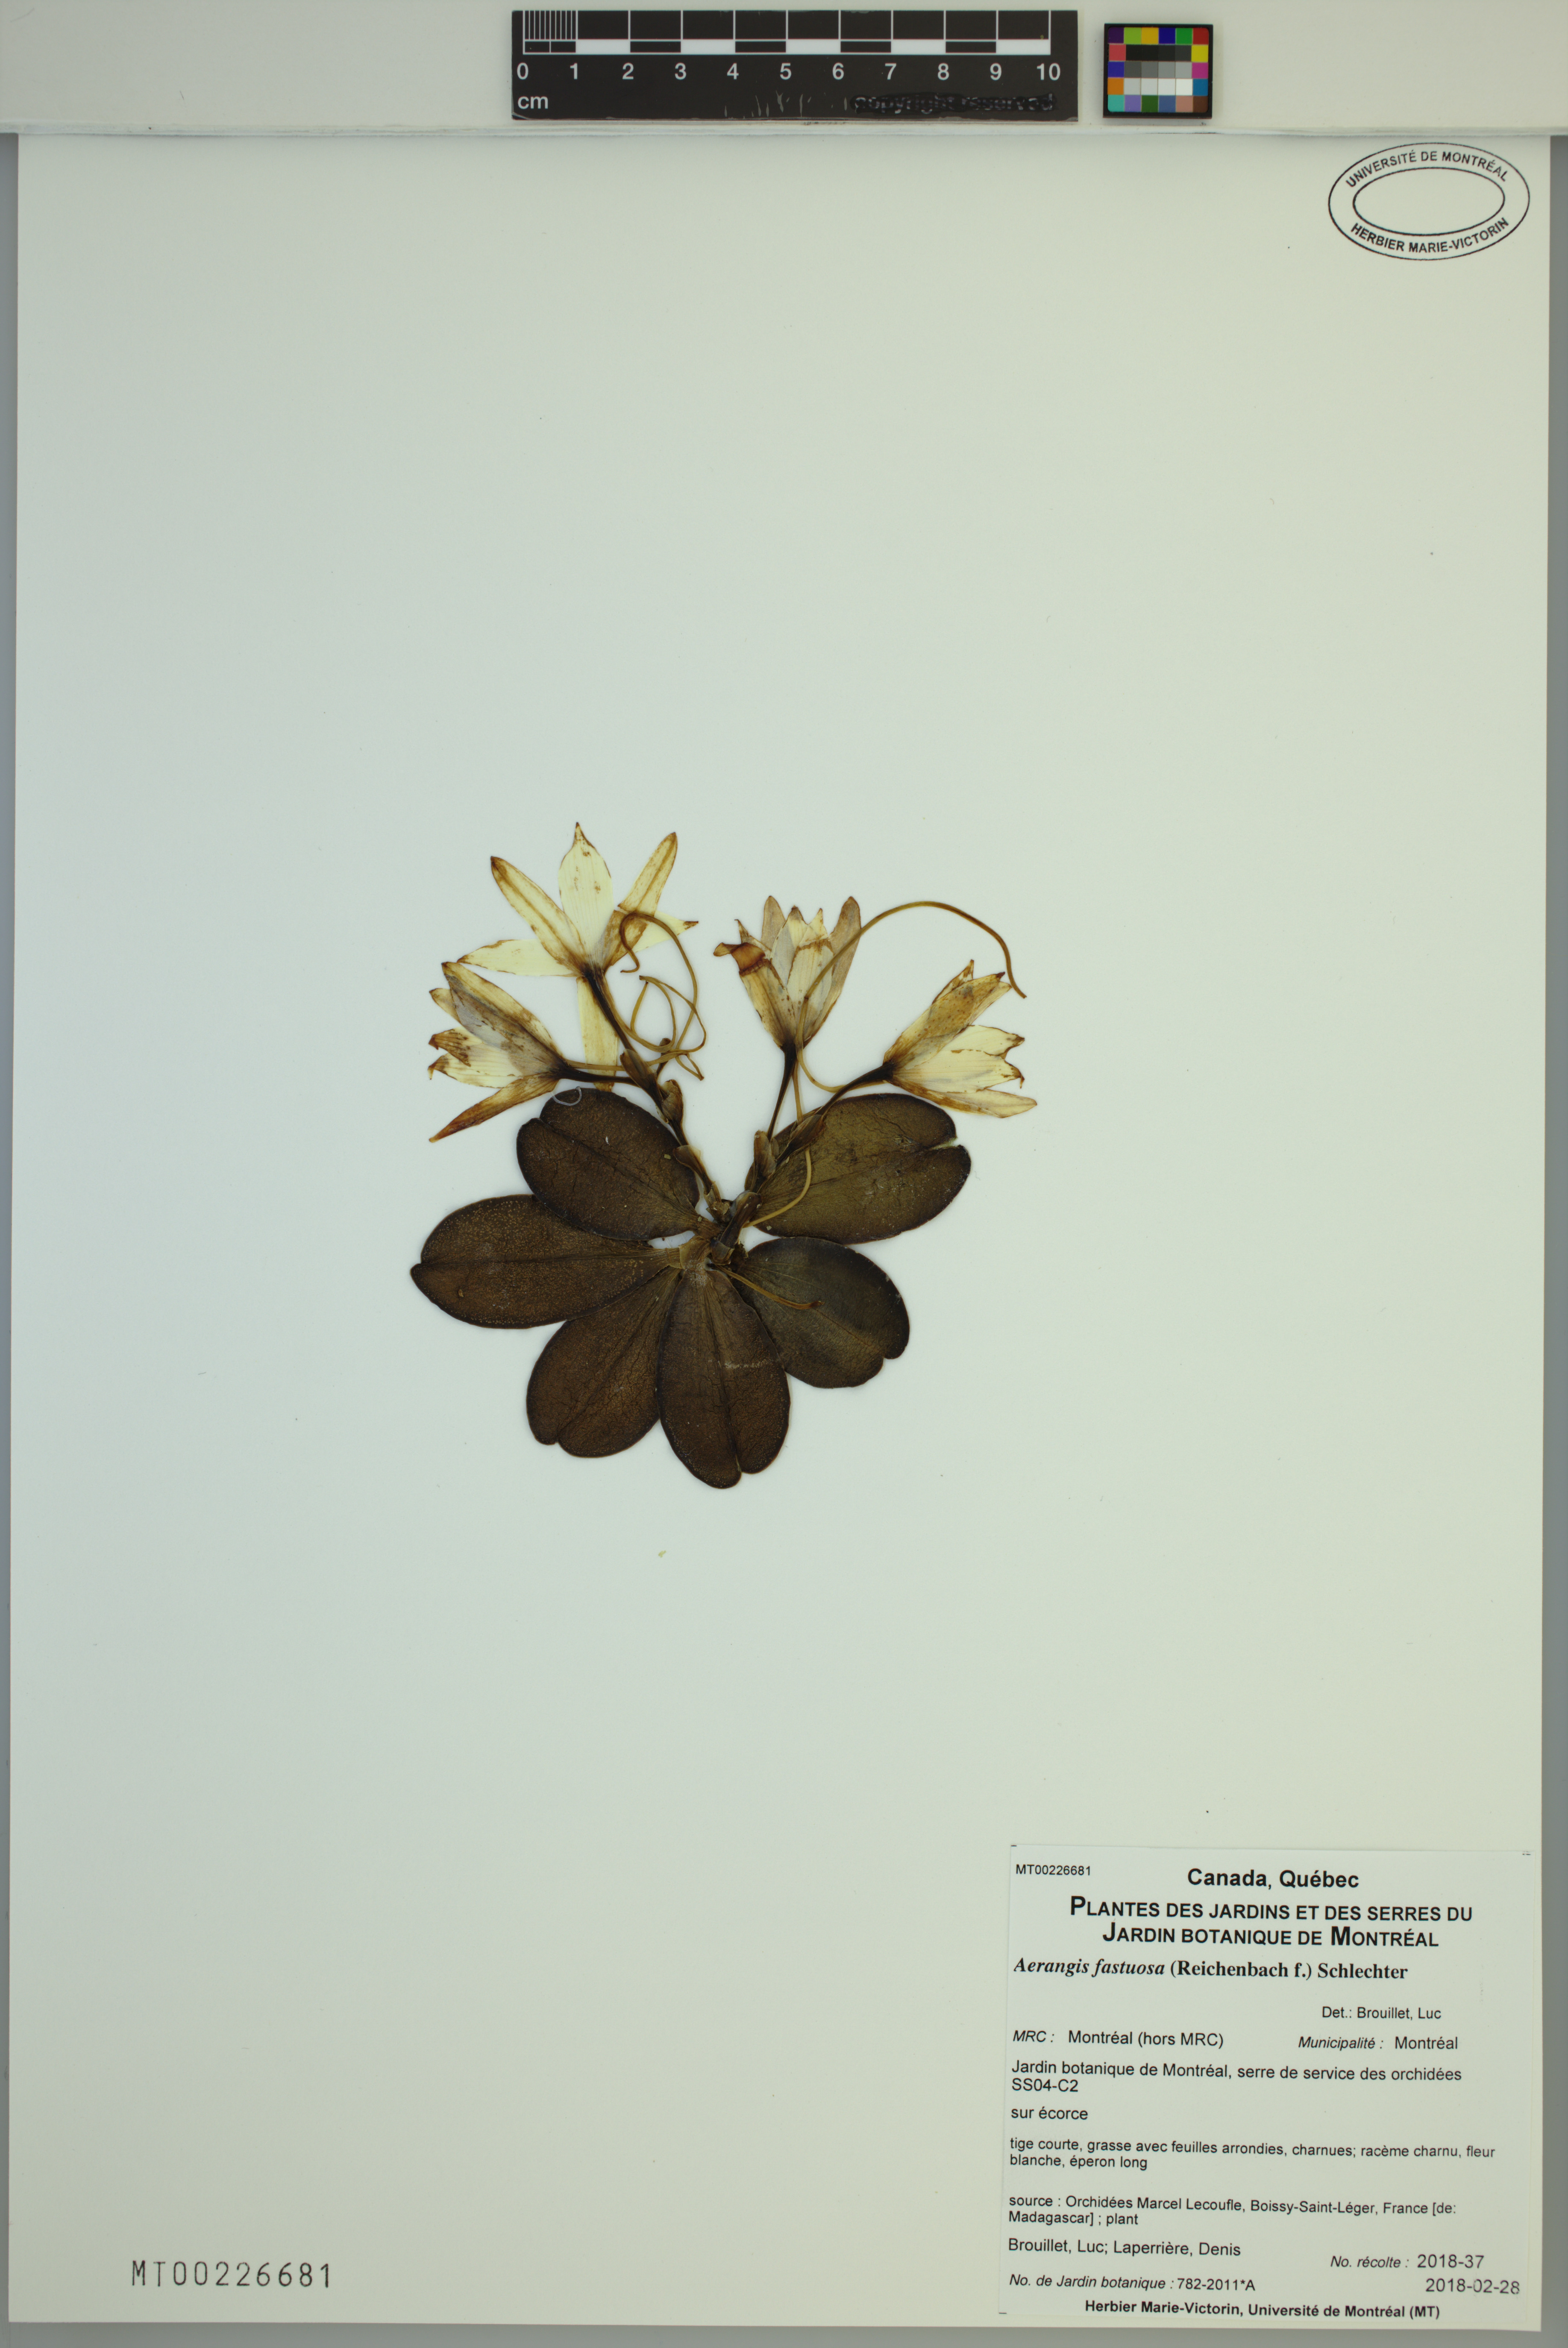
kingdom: Plantae
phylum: Tracheophyta
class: Liliopsida
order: Asparagales
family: Orchidaceae
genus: Aerangis
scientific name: Aerangis fastuosa
